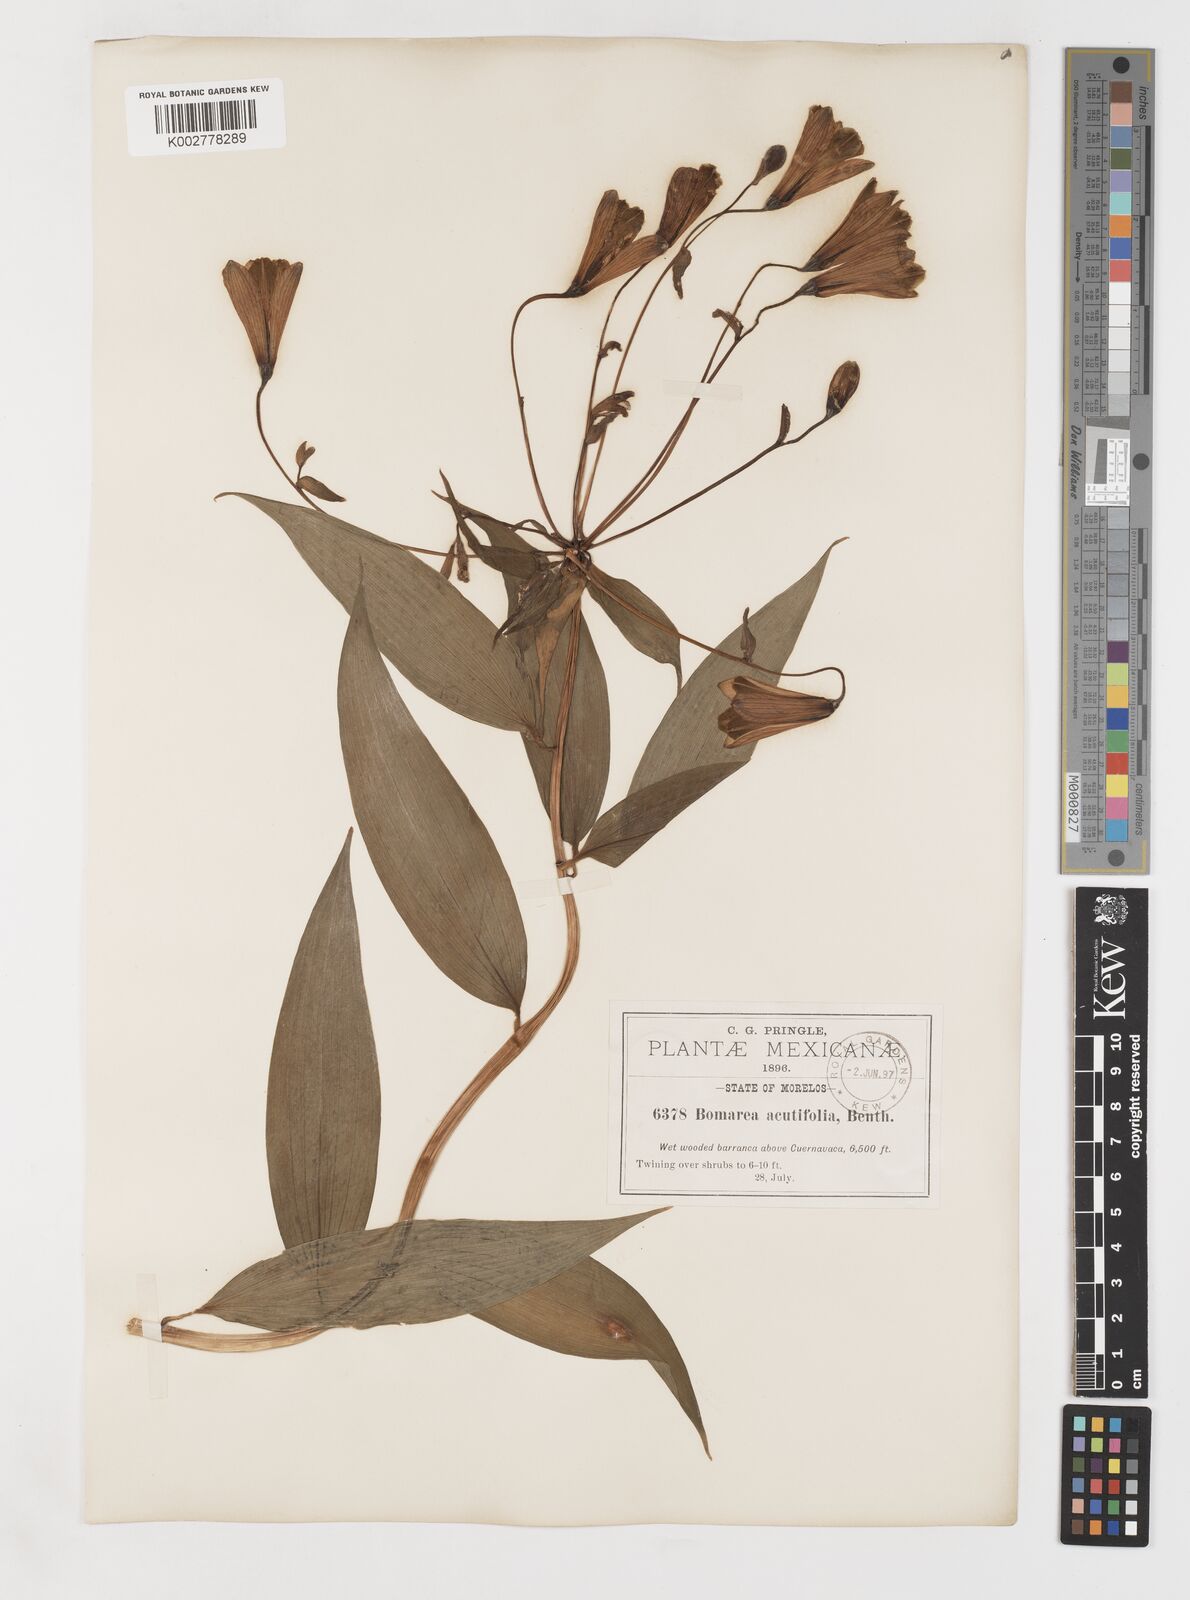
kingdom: Plantae
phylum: Tracheophyta
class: Liliopsida
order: Liliales
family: Alstroemeriaceae
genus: Bomarea
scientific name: Bomarea edulis
